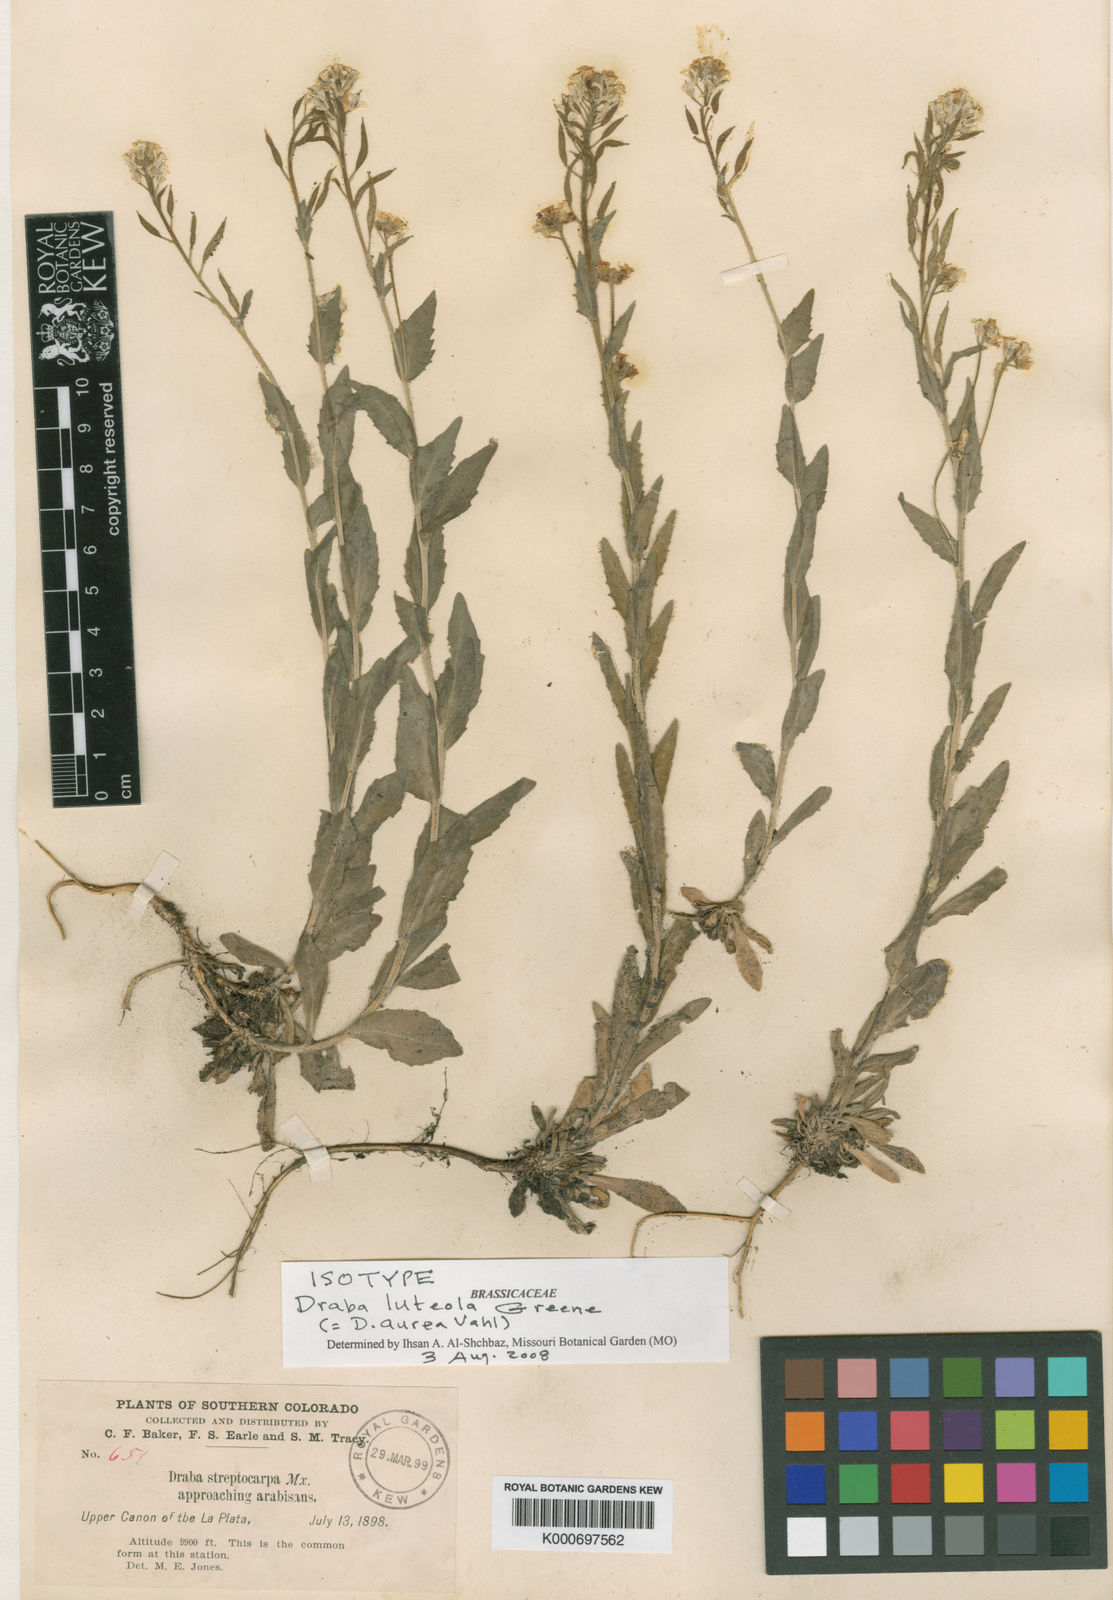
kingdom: Plantae
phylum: Tracheophyta
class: Magnoliopsida
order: Brassicales
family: Brassicaceae
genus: Draba
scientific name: Draba aurea
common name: Golden draba
